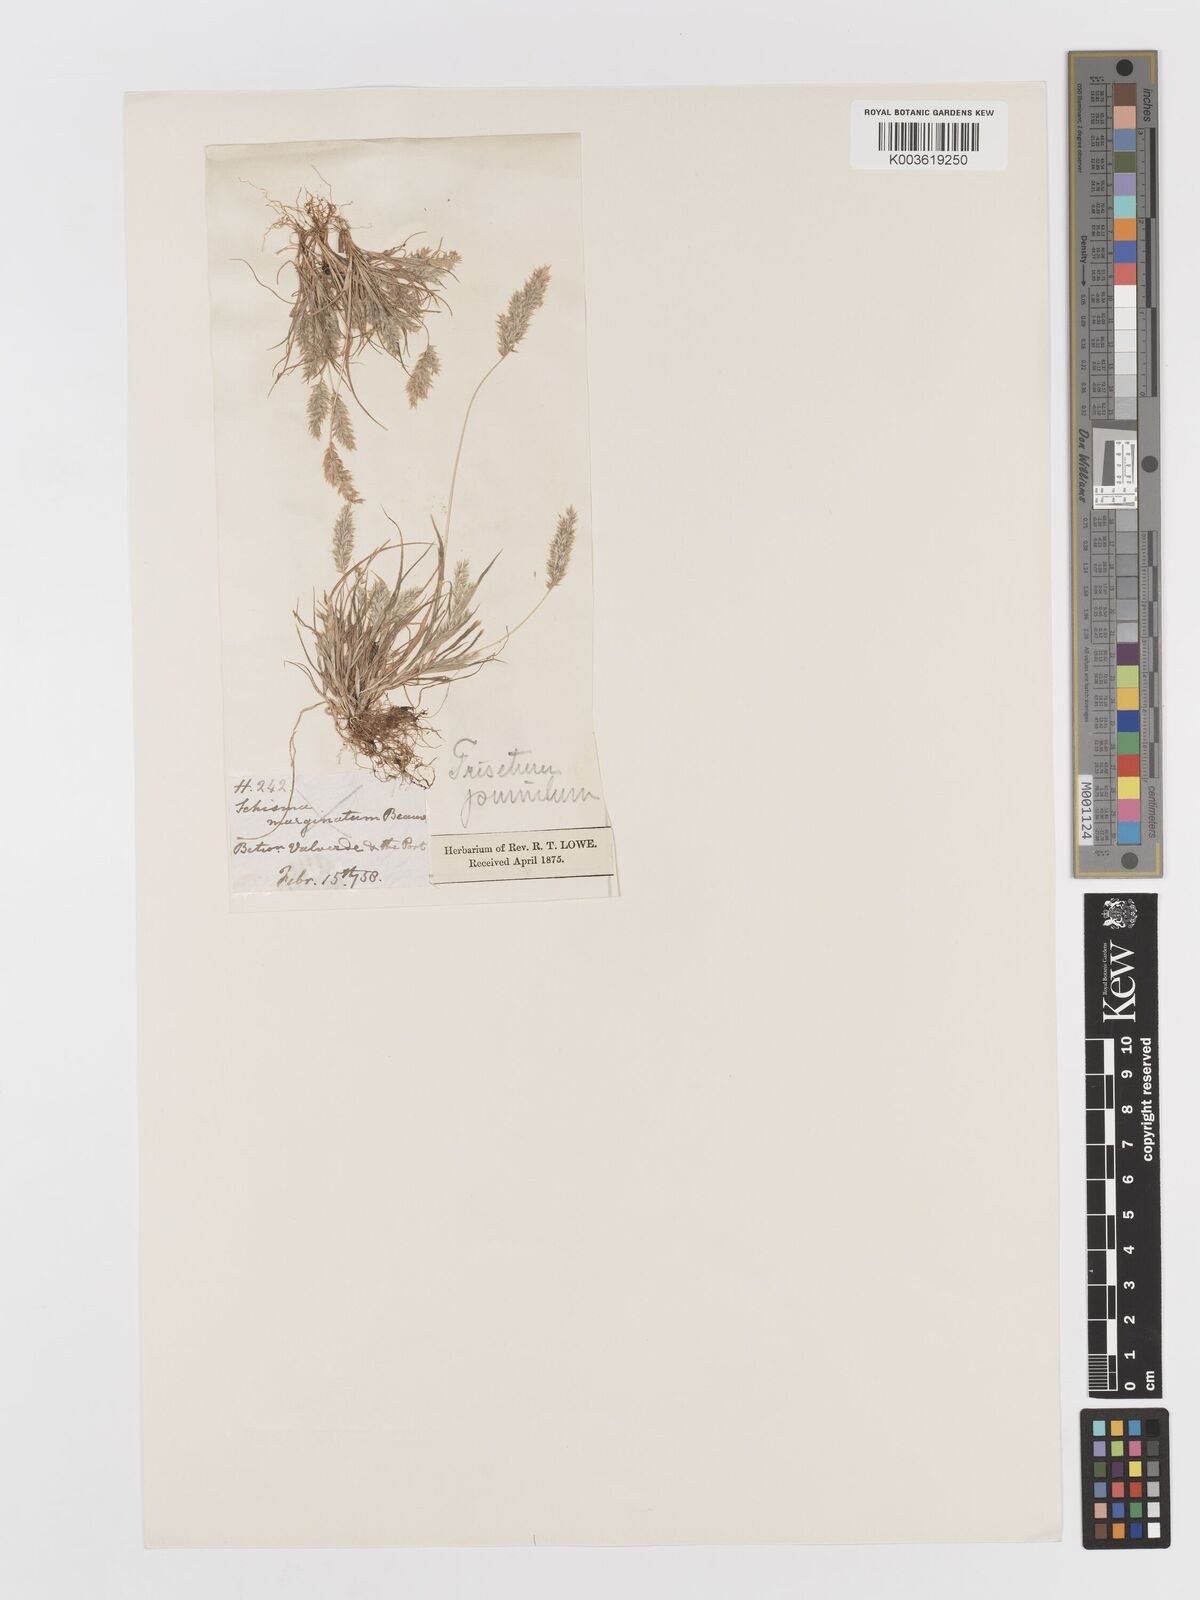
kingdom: Plantae
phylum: Tracheophyta
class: Liliopsida
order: Poales
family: Poaceae
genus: Rostraria
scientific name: Rostraria pumila
